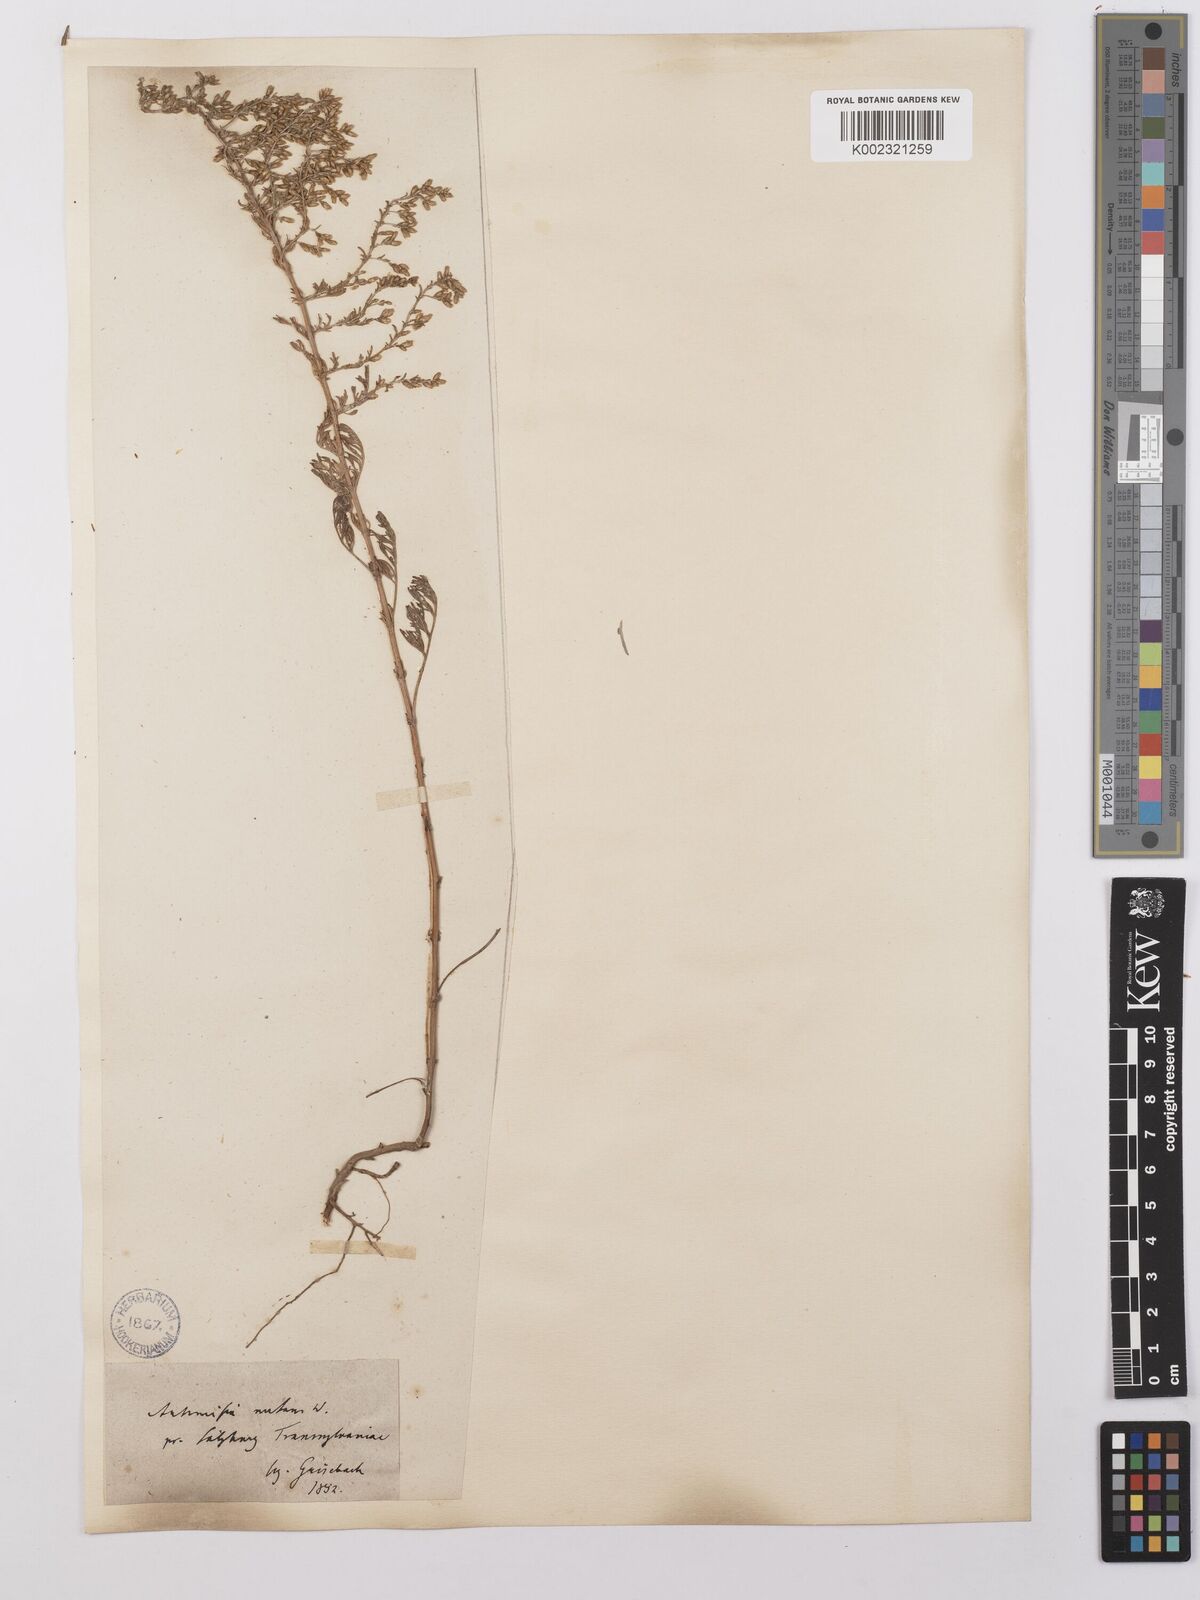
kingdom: Plantae
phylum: Tracheophyta
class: Magnoliopsida
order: Asterales
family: Asteraceae
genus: Artemisia
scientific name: Artemisia maritima
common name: Wormseed
